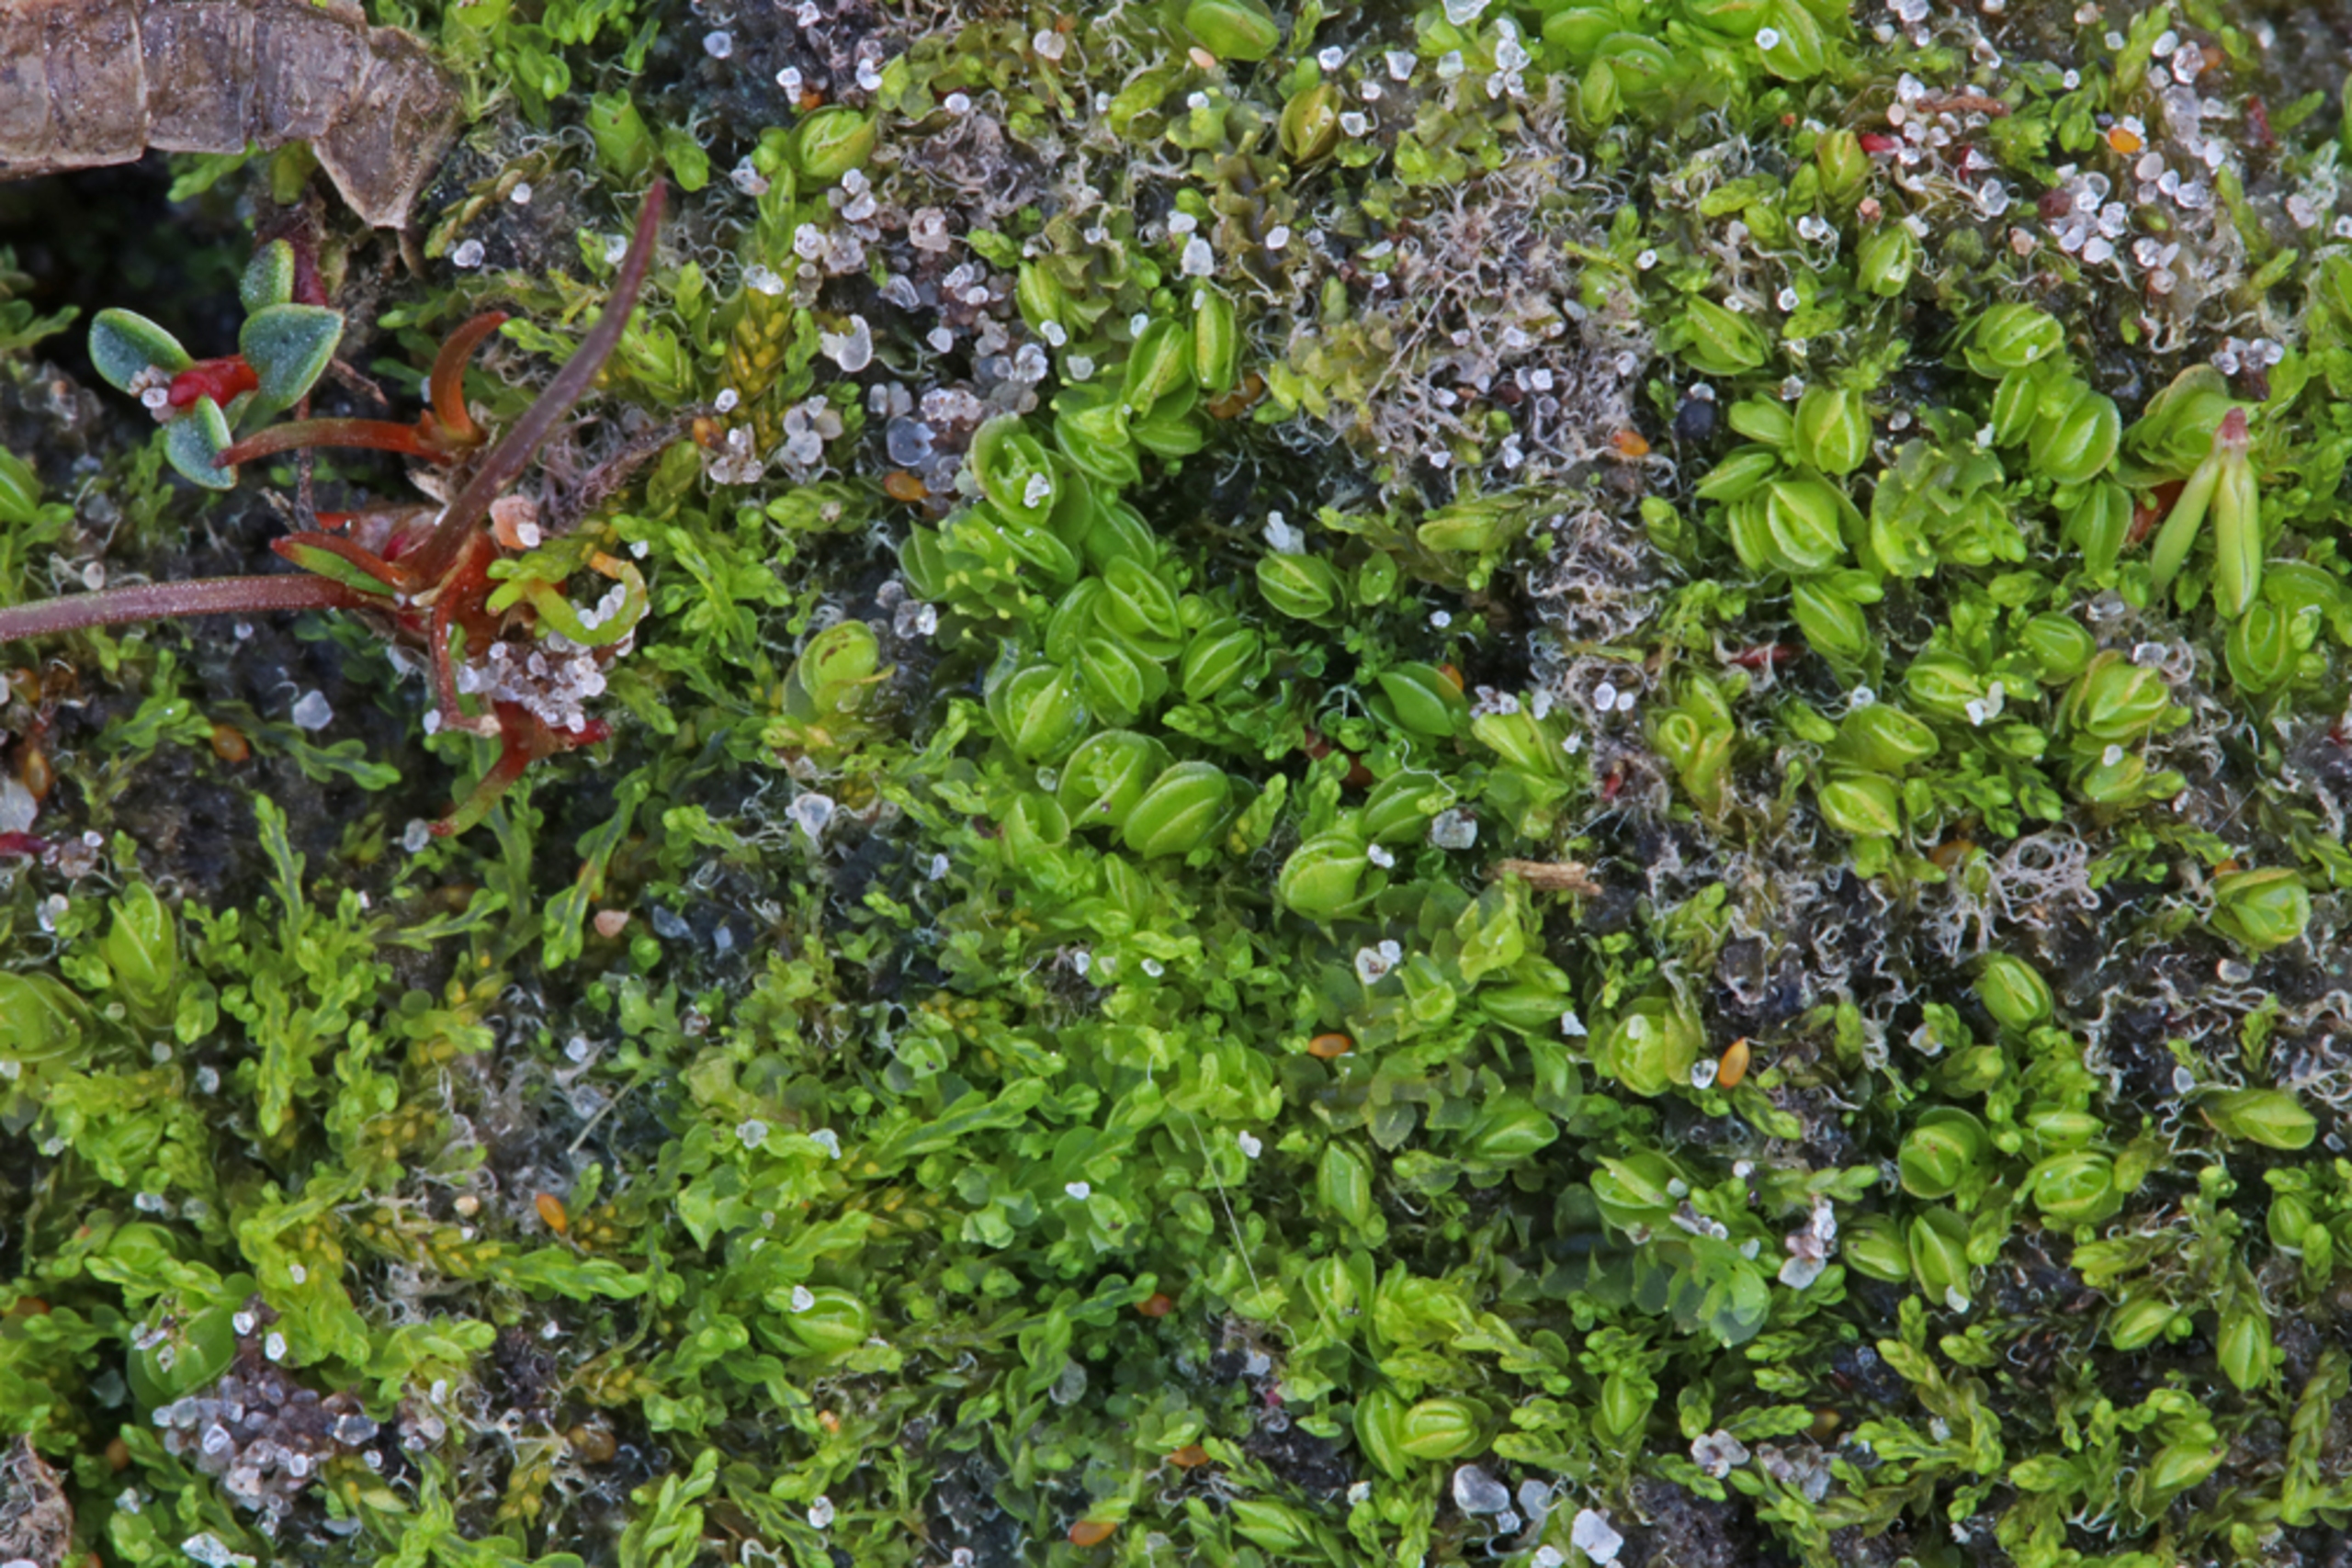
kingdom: Plantae
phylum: Marchantiophyta
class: Jungermanniopsida
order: Jungermanniales
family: Solenostomataceae
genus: Solenostoma
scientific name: Solenostoma gracillimum
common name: Vinget rørmund
